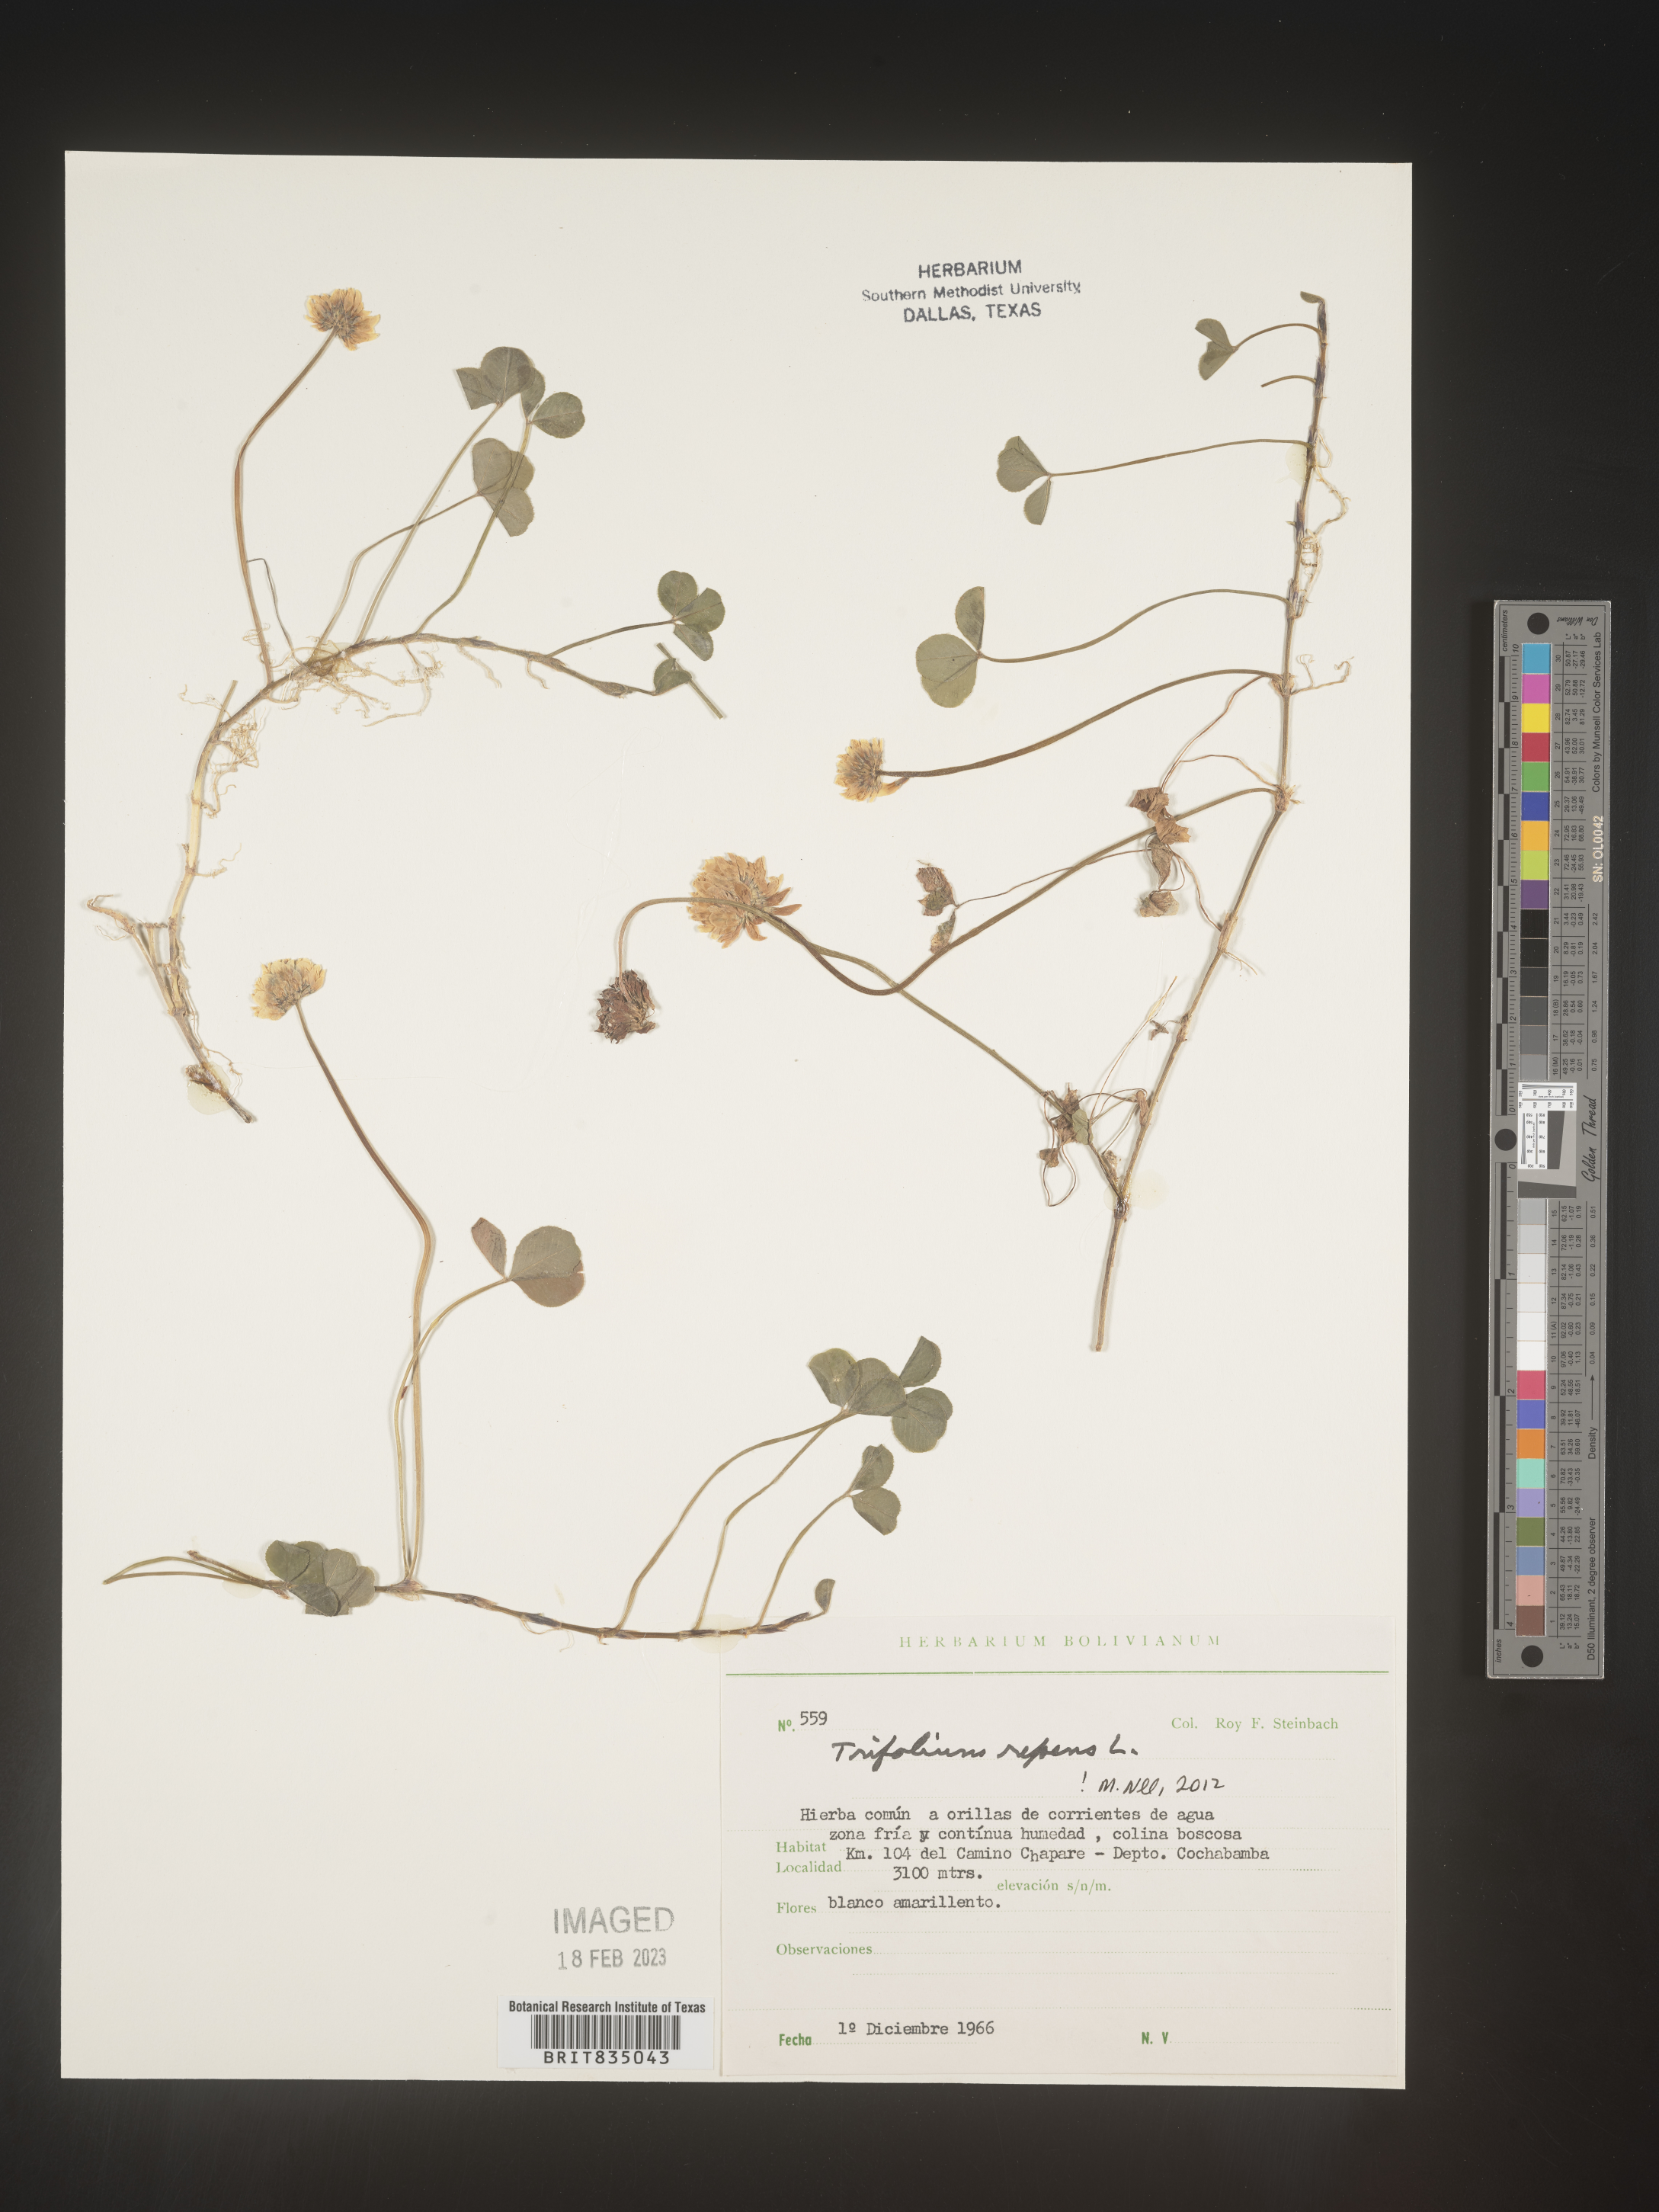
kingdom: Plantae
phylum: Tracheophyta
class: Magnoliopsida
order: Fabales
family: Fabaceae
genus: Trifolium
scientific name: Trifolium
